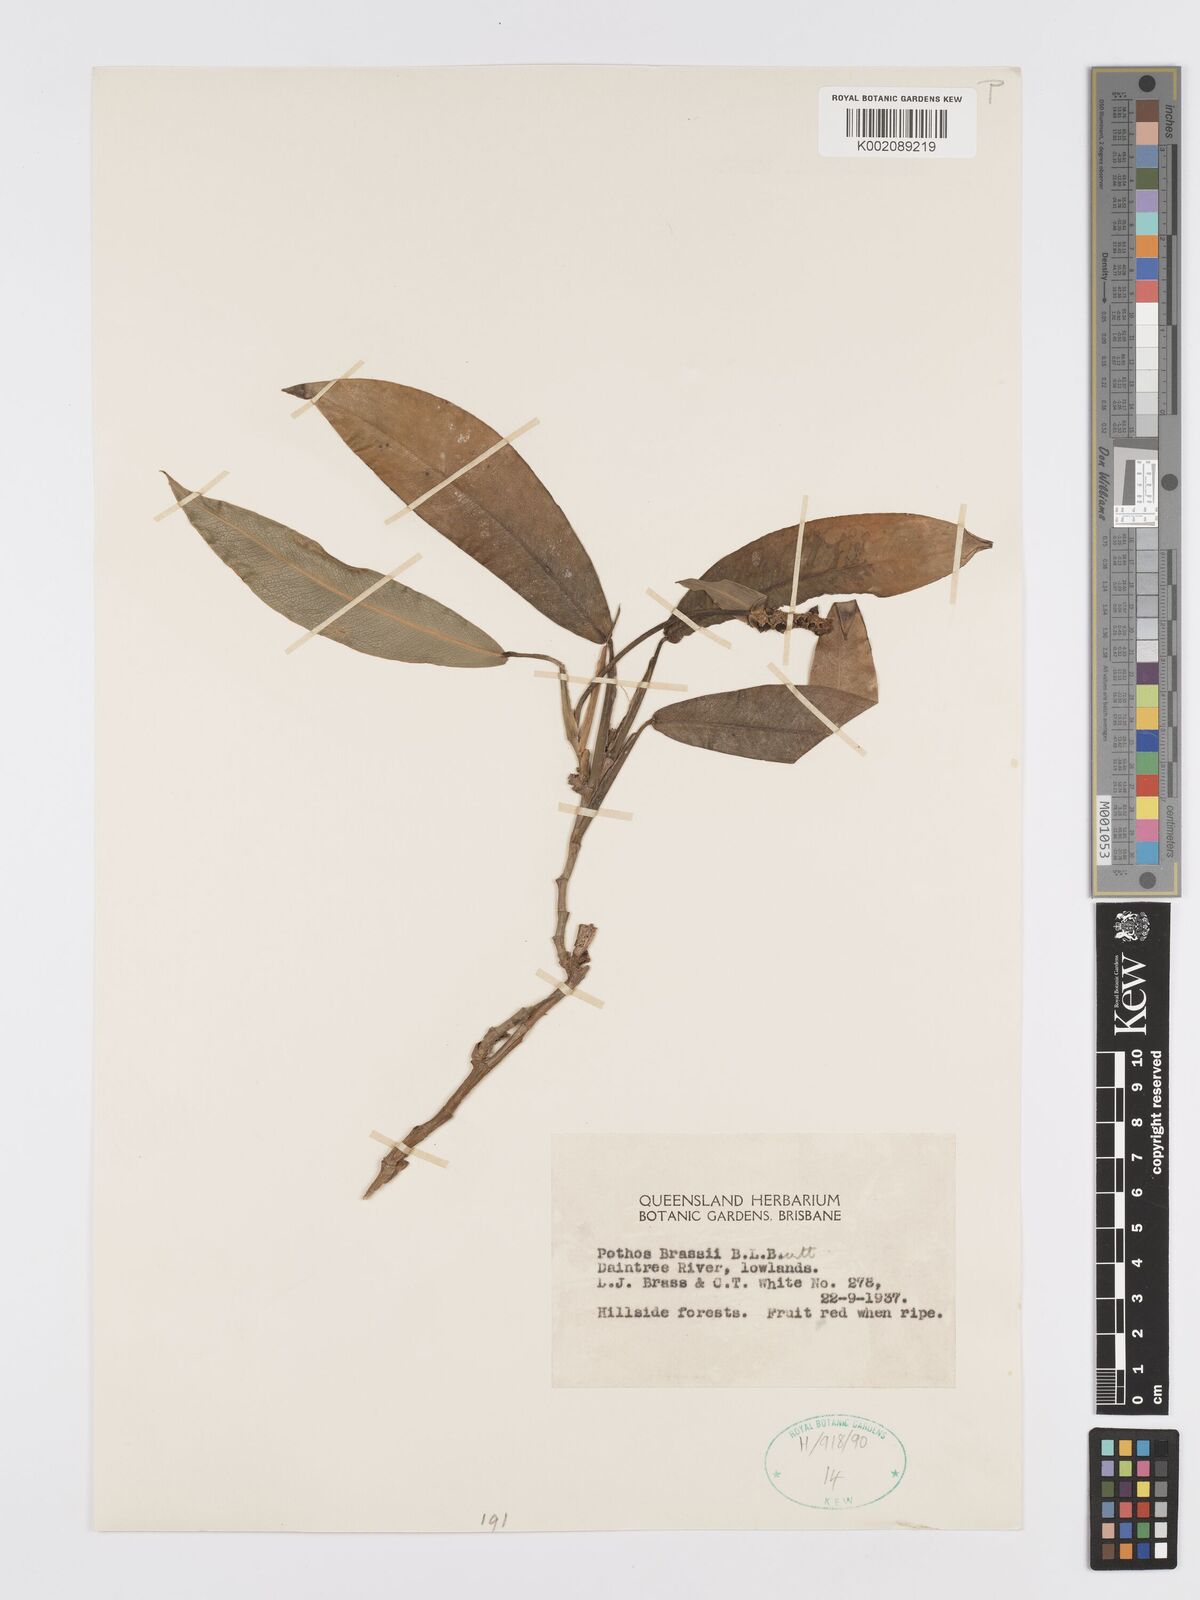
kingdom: Plantae
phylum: Tracheophyta
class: Liliopsida
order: Alismatales
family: Araceae
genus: Pothos
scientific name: Pothos brassii
